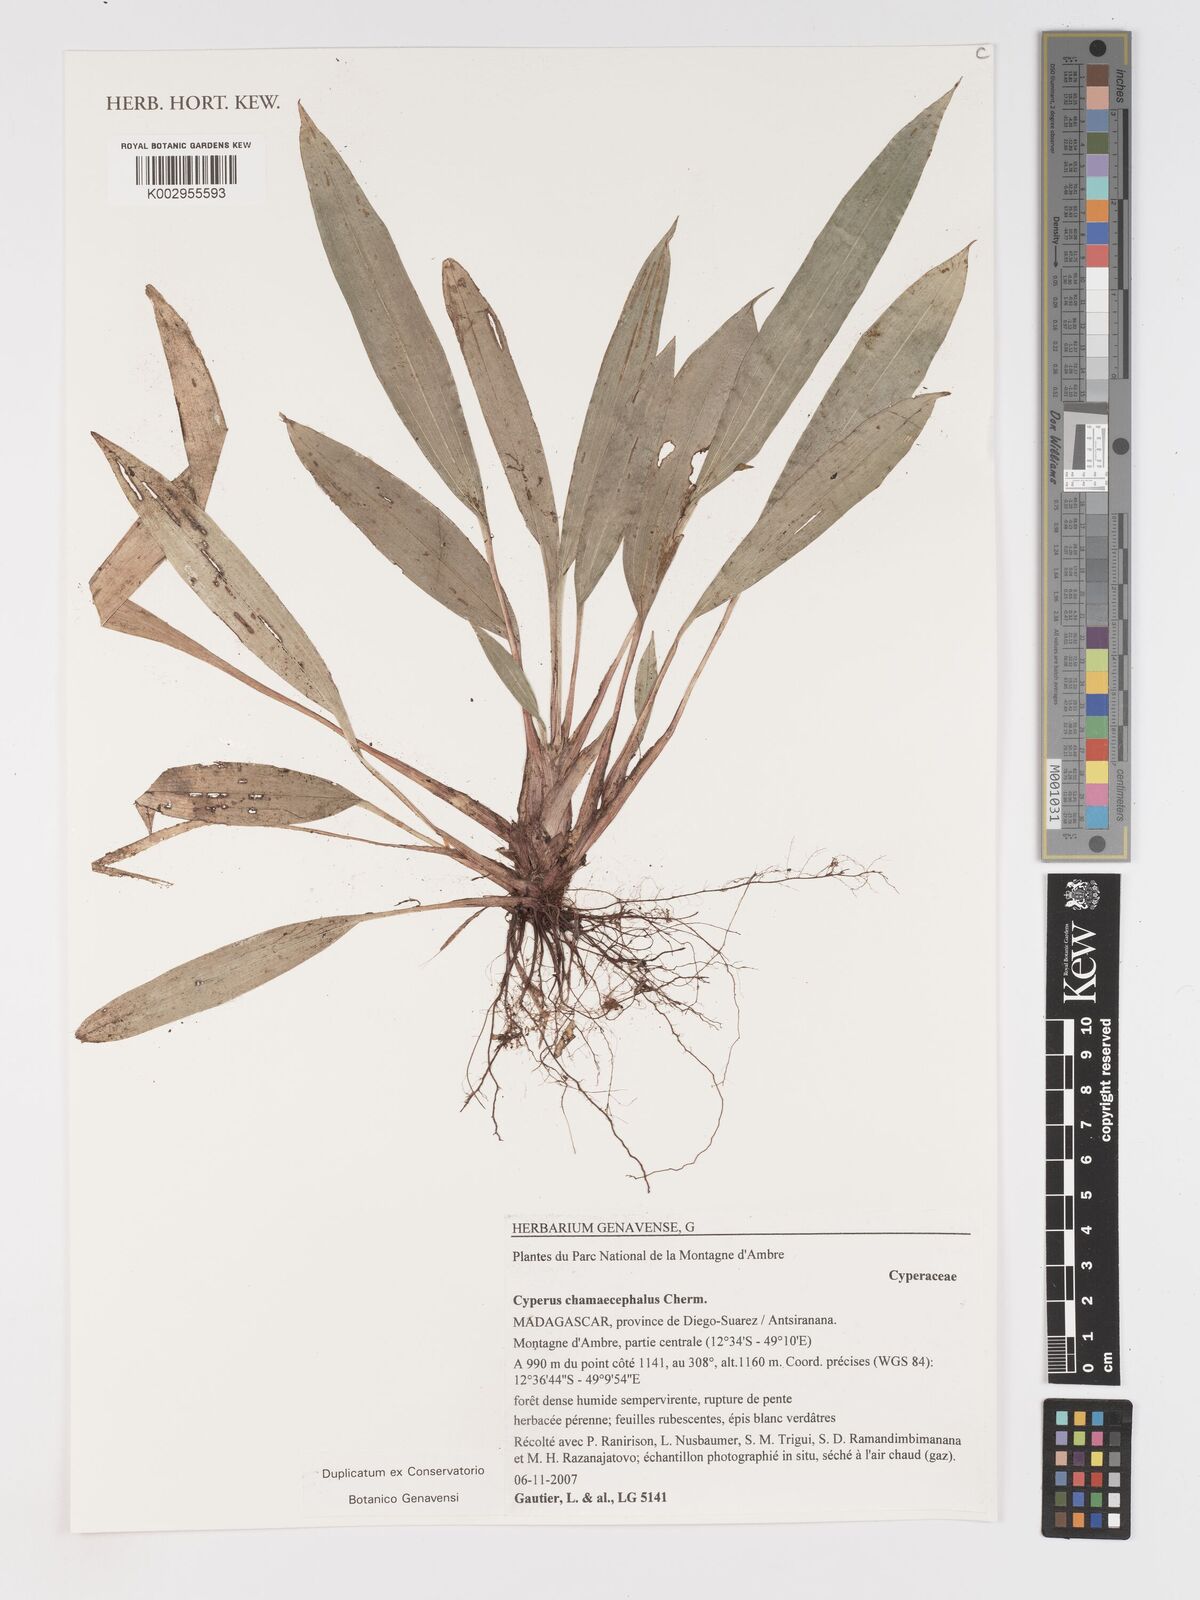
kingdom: Plantae
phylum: Tracheophyta
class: Liliopsida
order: Poales
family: Cyperaceae
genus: Cyperus
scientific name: Cyperus chamaecephalus
